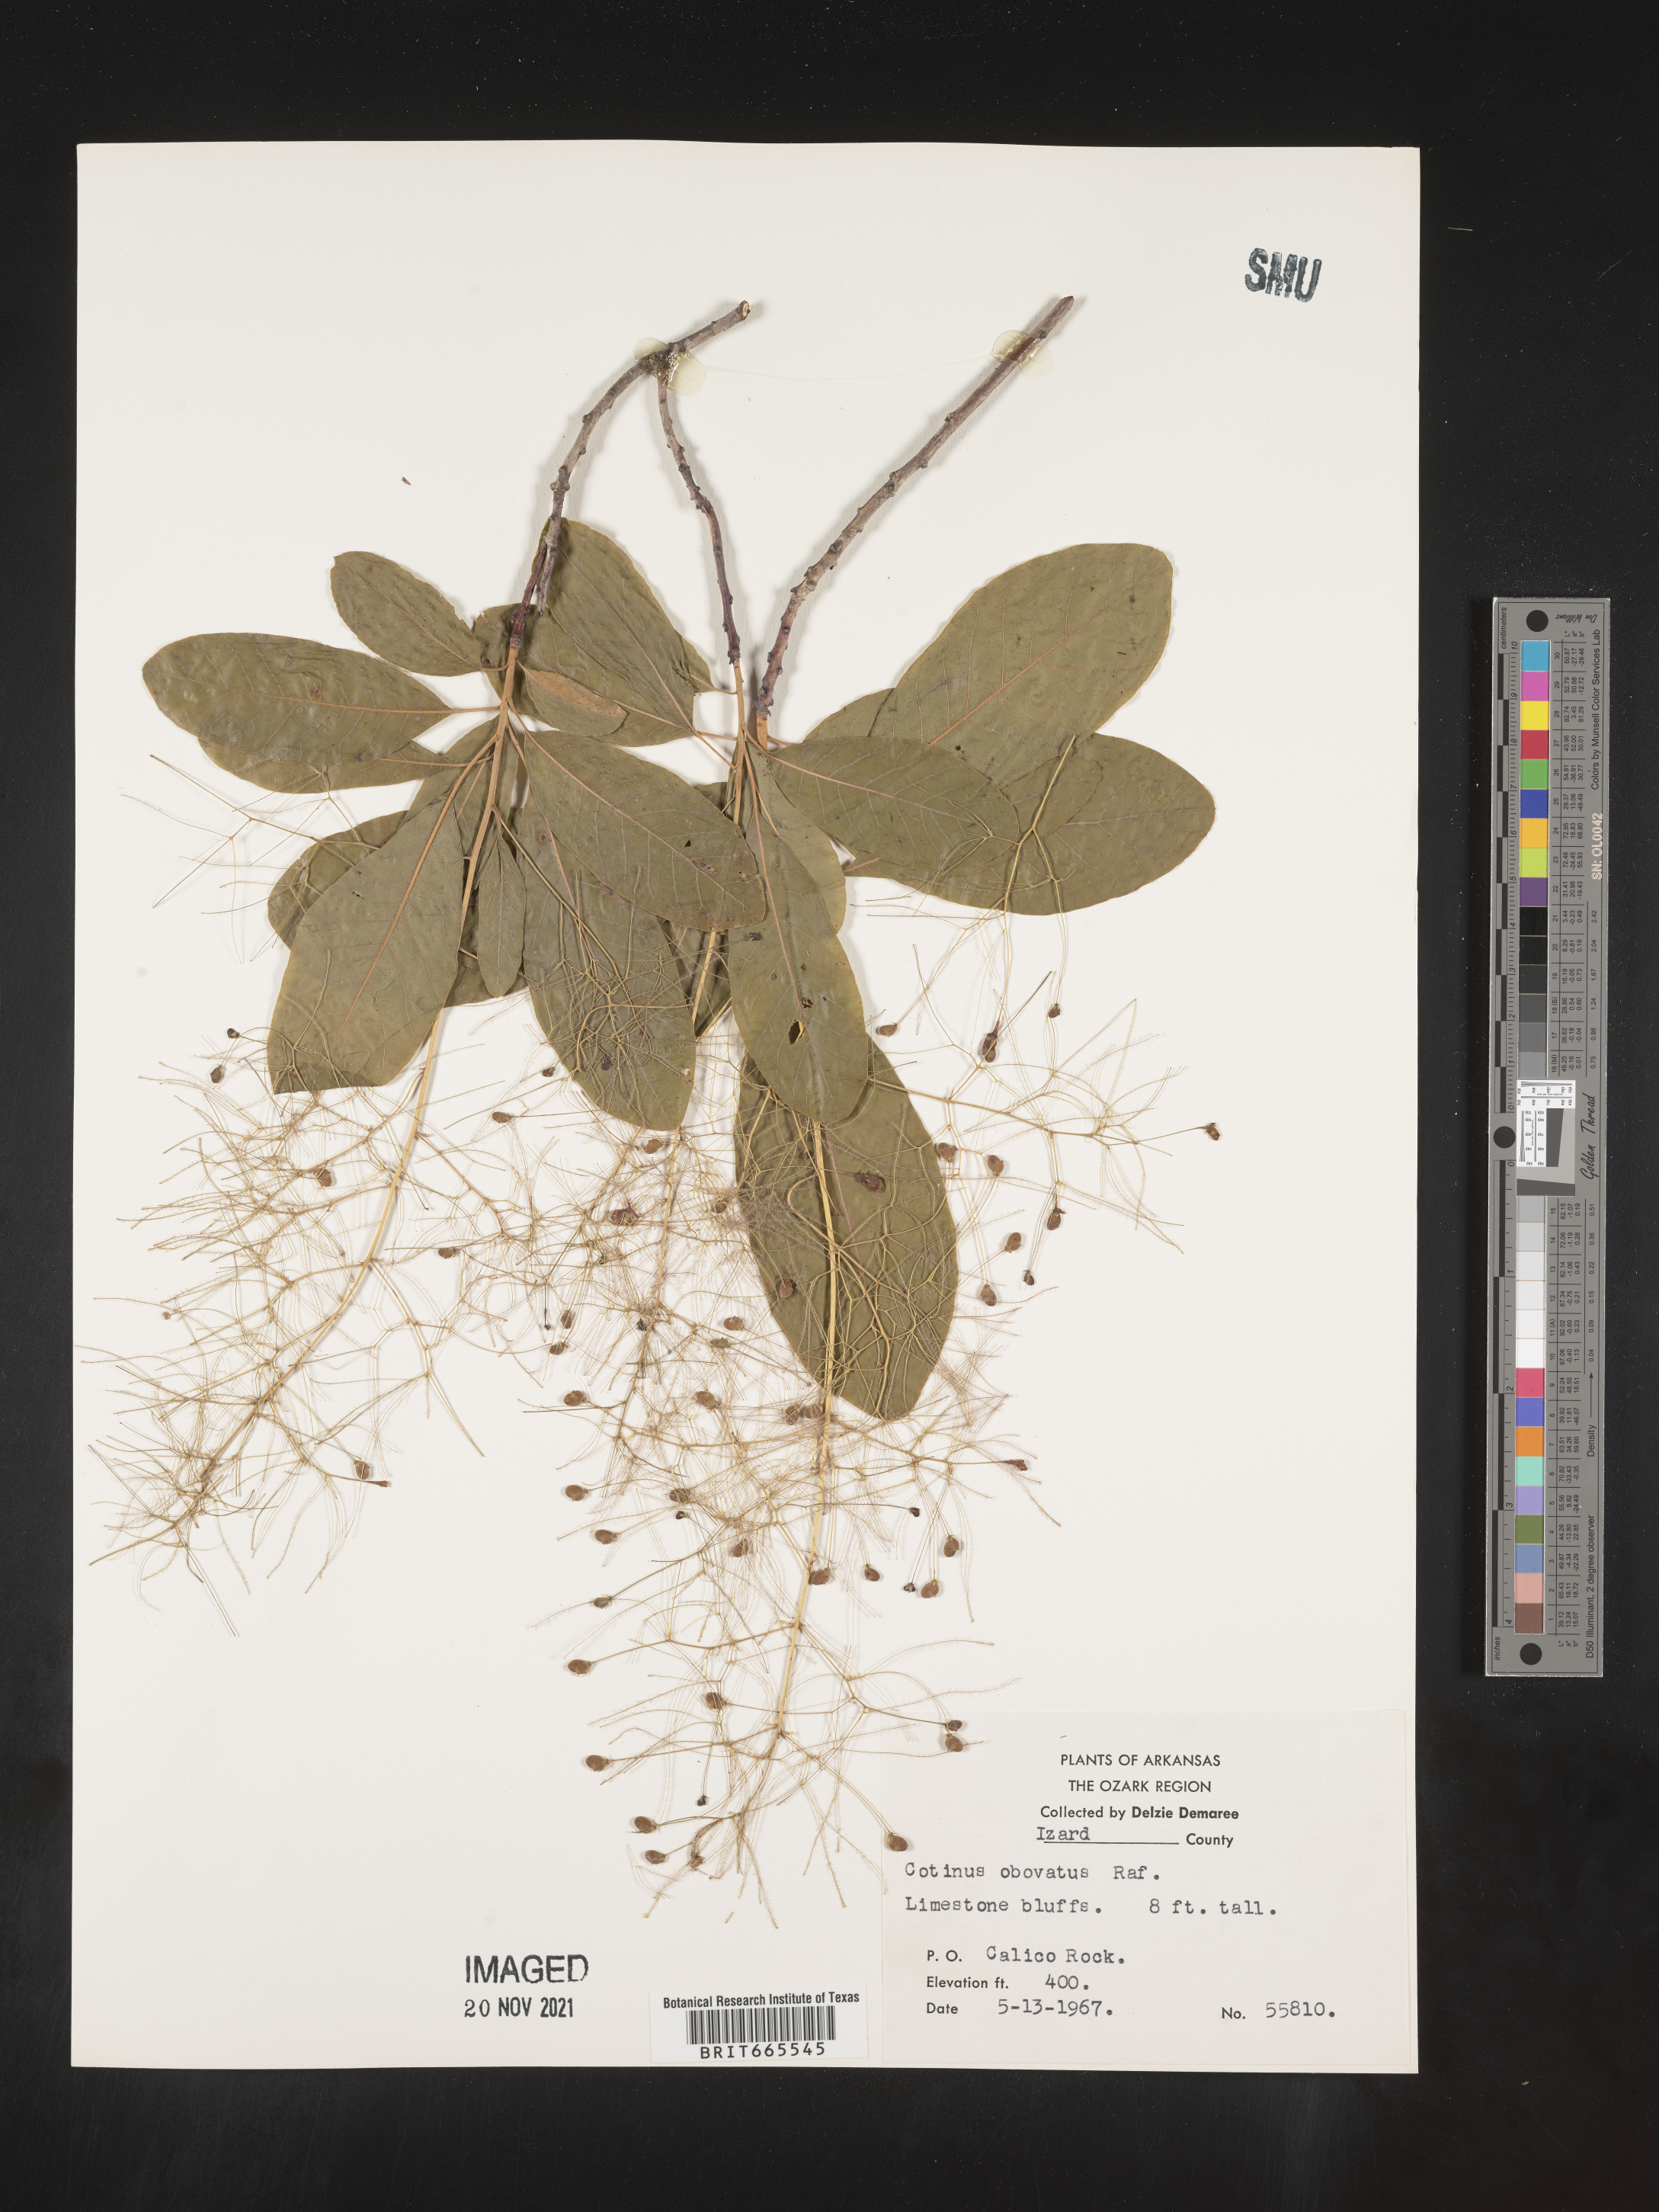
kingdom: Plantae
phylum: Tracheophyta
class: Magnoliopsida
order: Sapindales
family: Anacardiaceae
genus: Cotinus
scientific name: Cotinus obovatus
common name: Chittamwood
